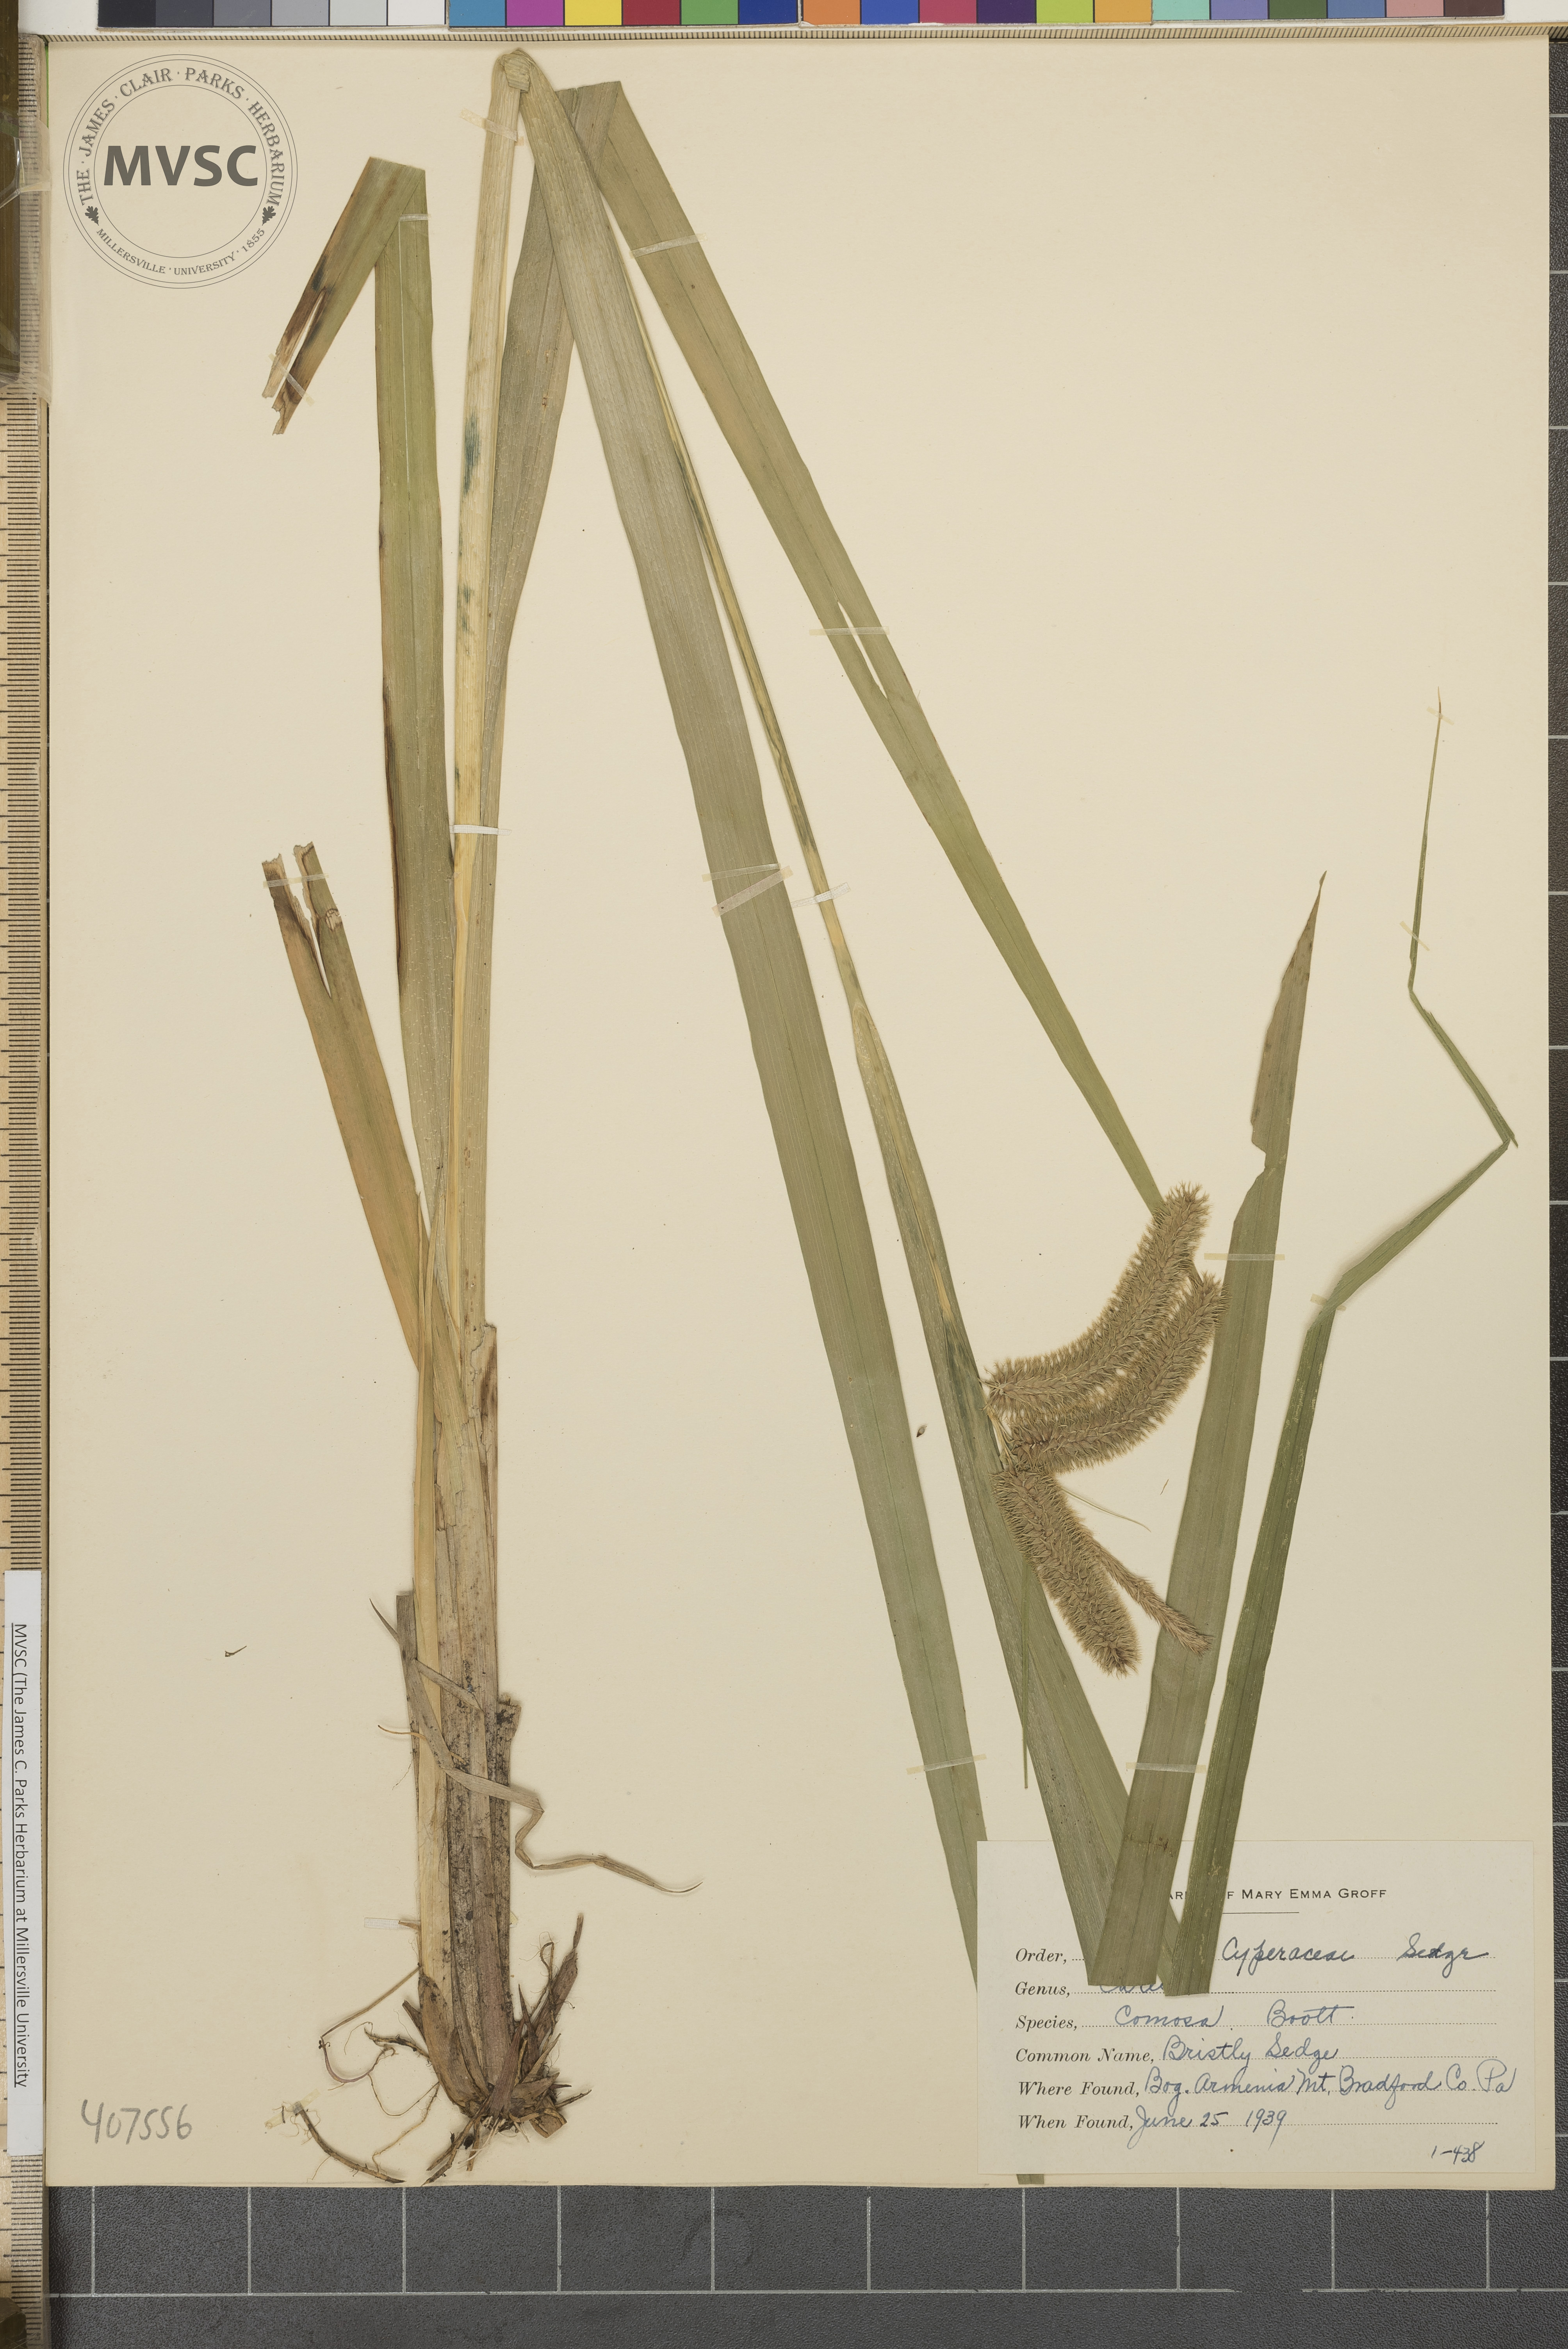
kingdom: Plantae
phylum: Tracheophyta
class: Liliopsida
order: Poales
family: Cyperaceae
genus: Carex
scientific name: Carex comosa
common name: Bristly Sedge
